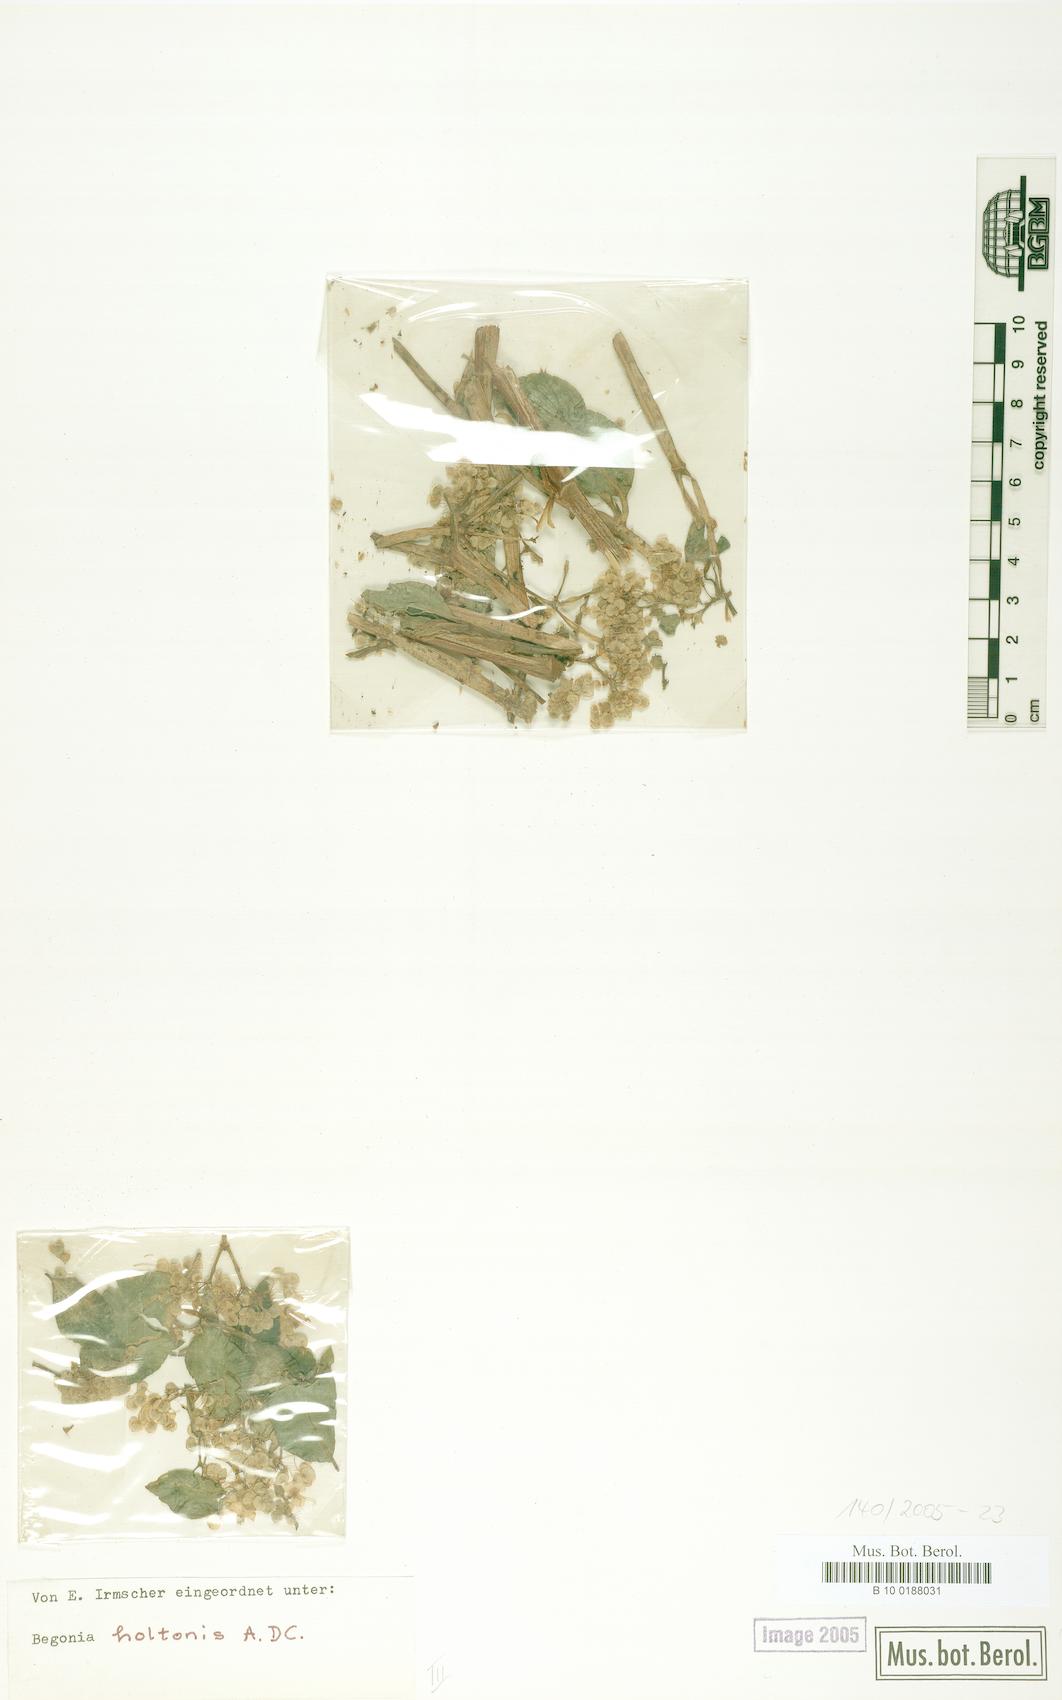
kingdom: Plantae
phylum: Tracheophyta
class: Magnoliopsida
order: Cucurbitales
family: Begoniaceae
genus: Begonia
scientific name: Begonia holtonis
